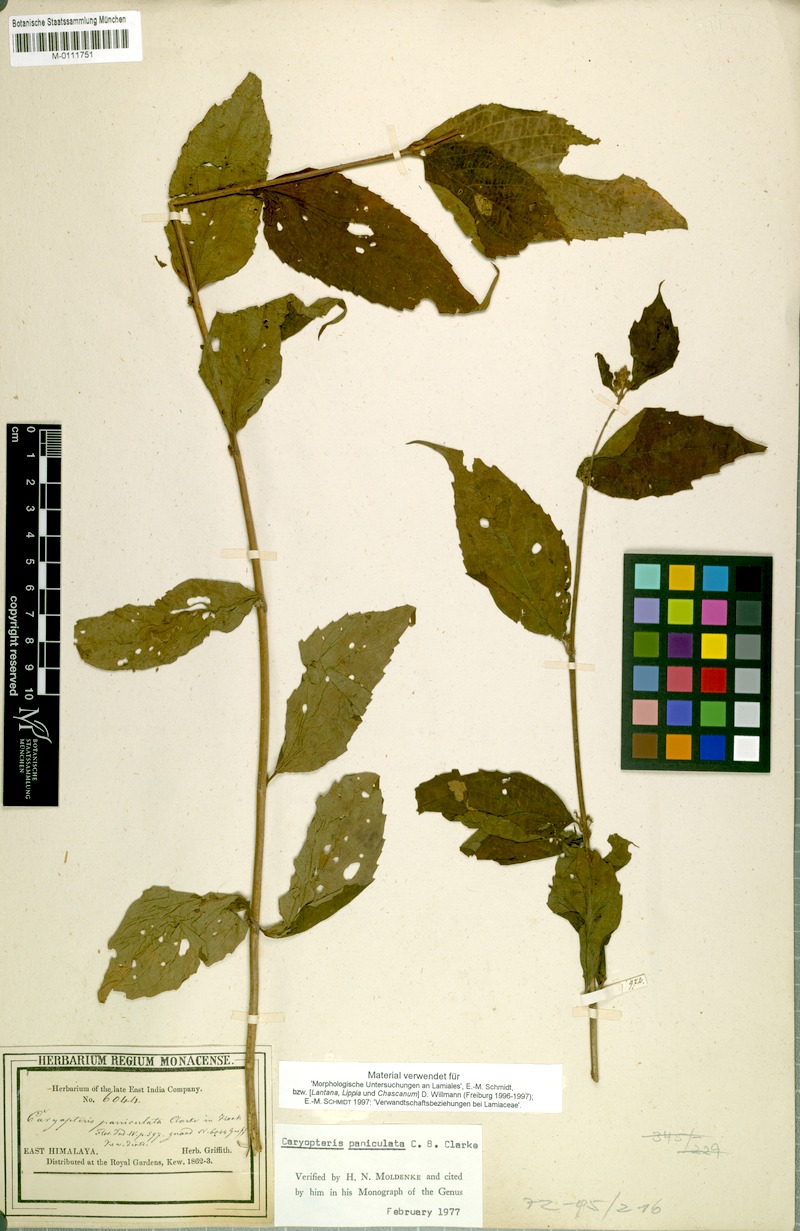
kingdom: Plantae
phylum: Tracheophyta
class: Magnoliopsida
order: Lamiales
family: Lamiaceae
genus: Pseudocaryopteris
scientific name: Pseudocaryopteris foetida
